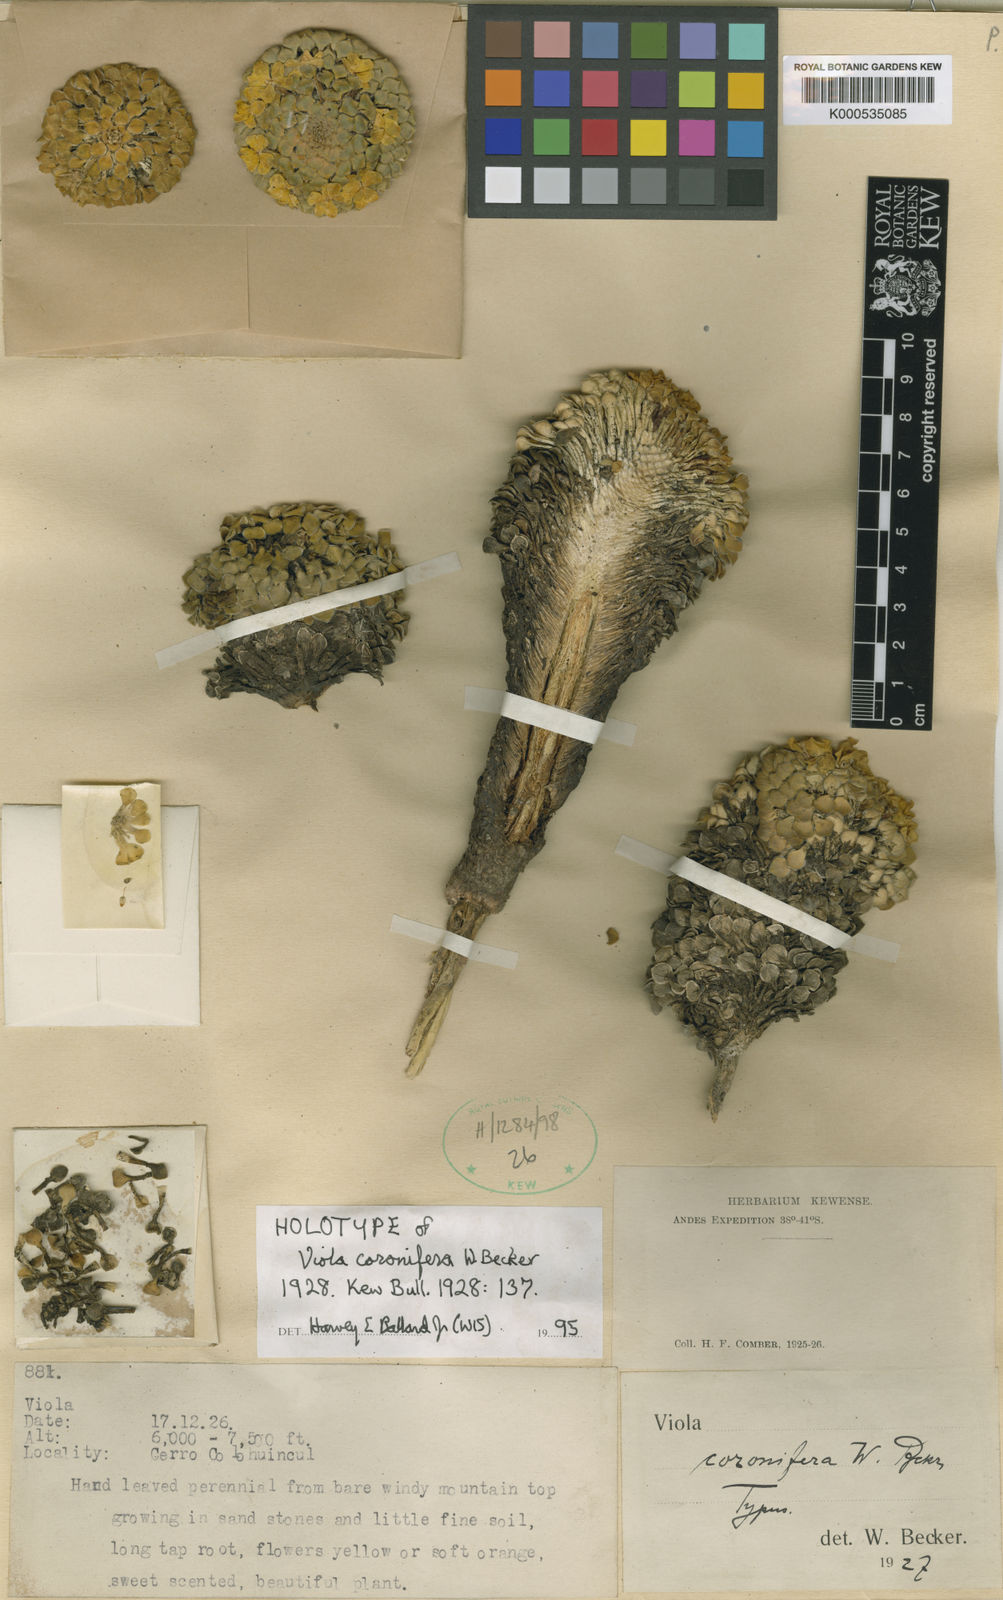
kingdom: Plantae
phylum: Tracheophyta
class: Magnoliopsida
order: Malpighiales
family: Violaceae
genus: Viola
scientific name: Viola coronifera
